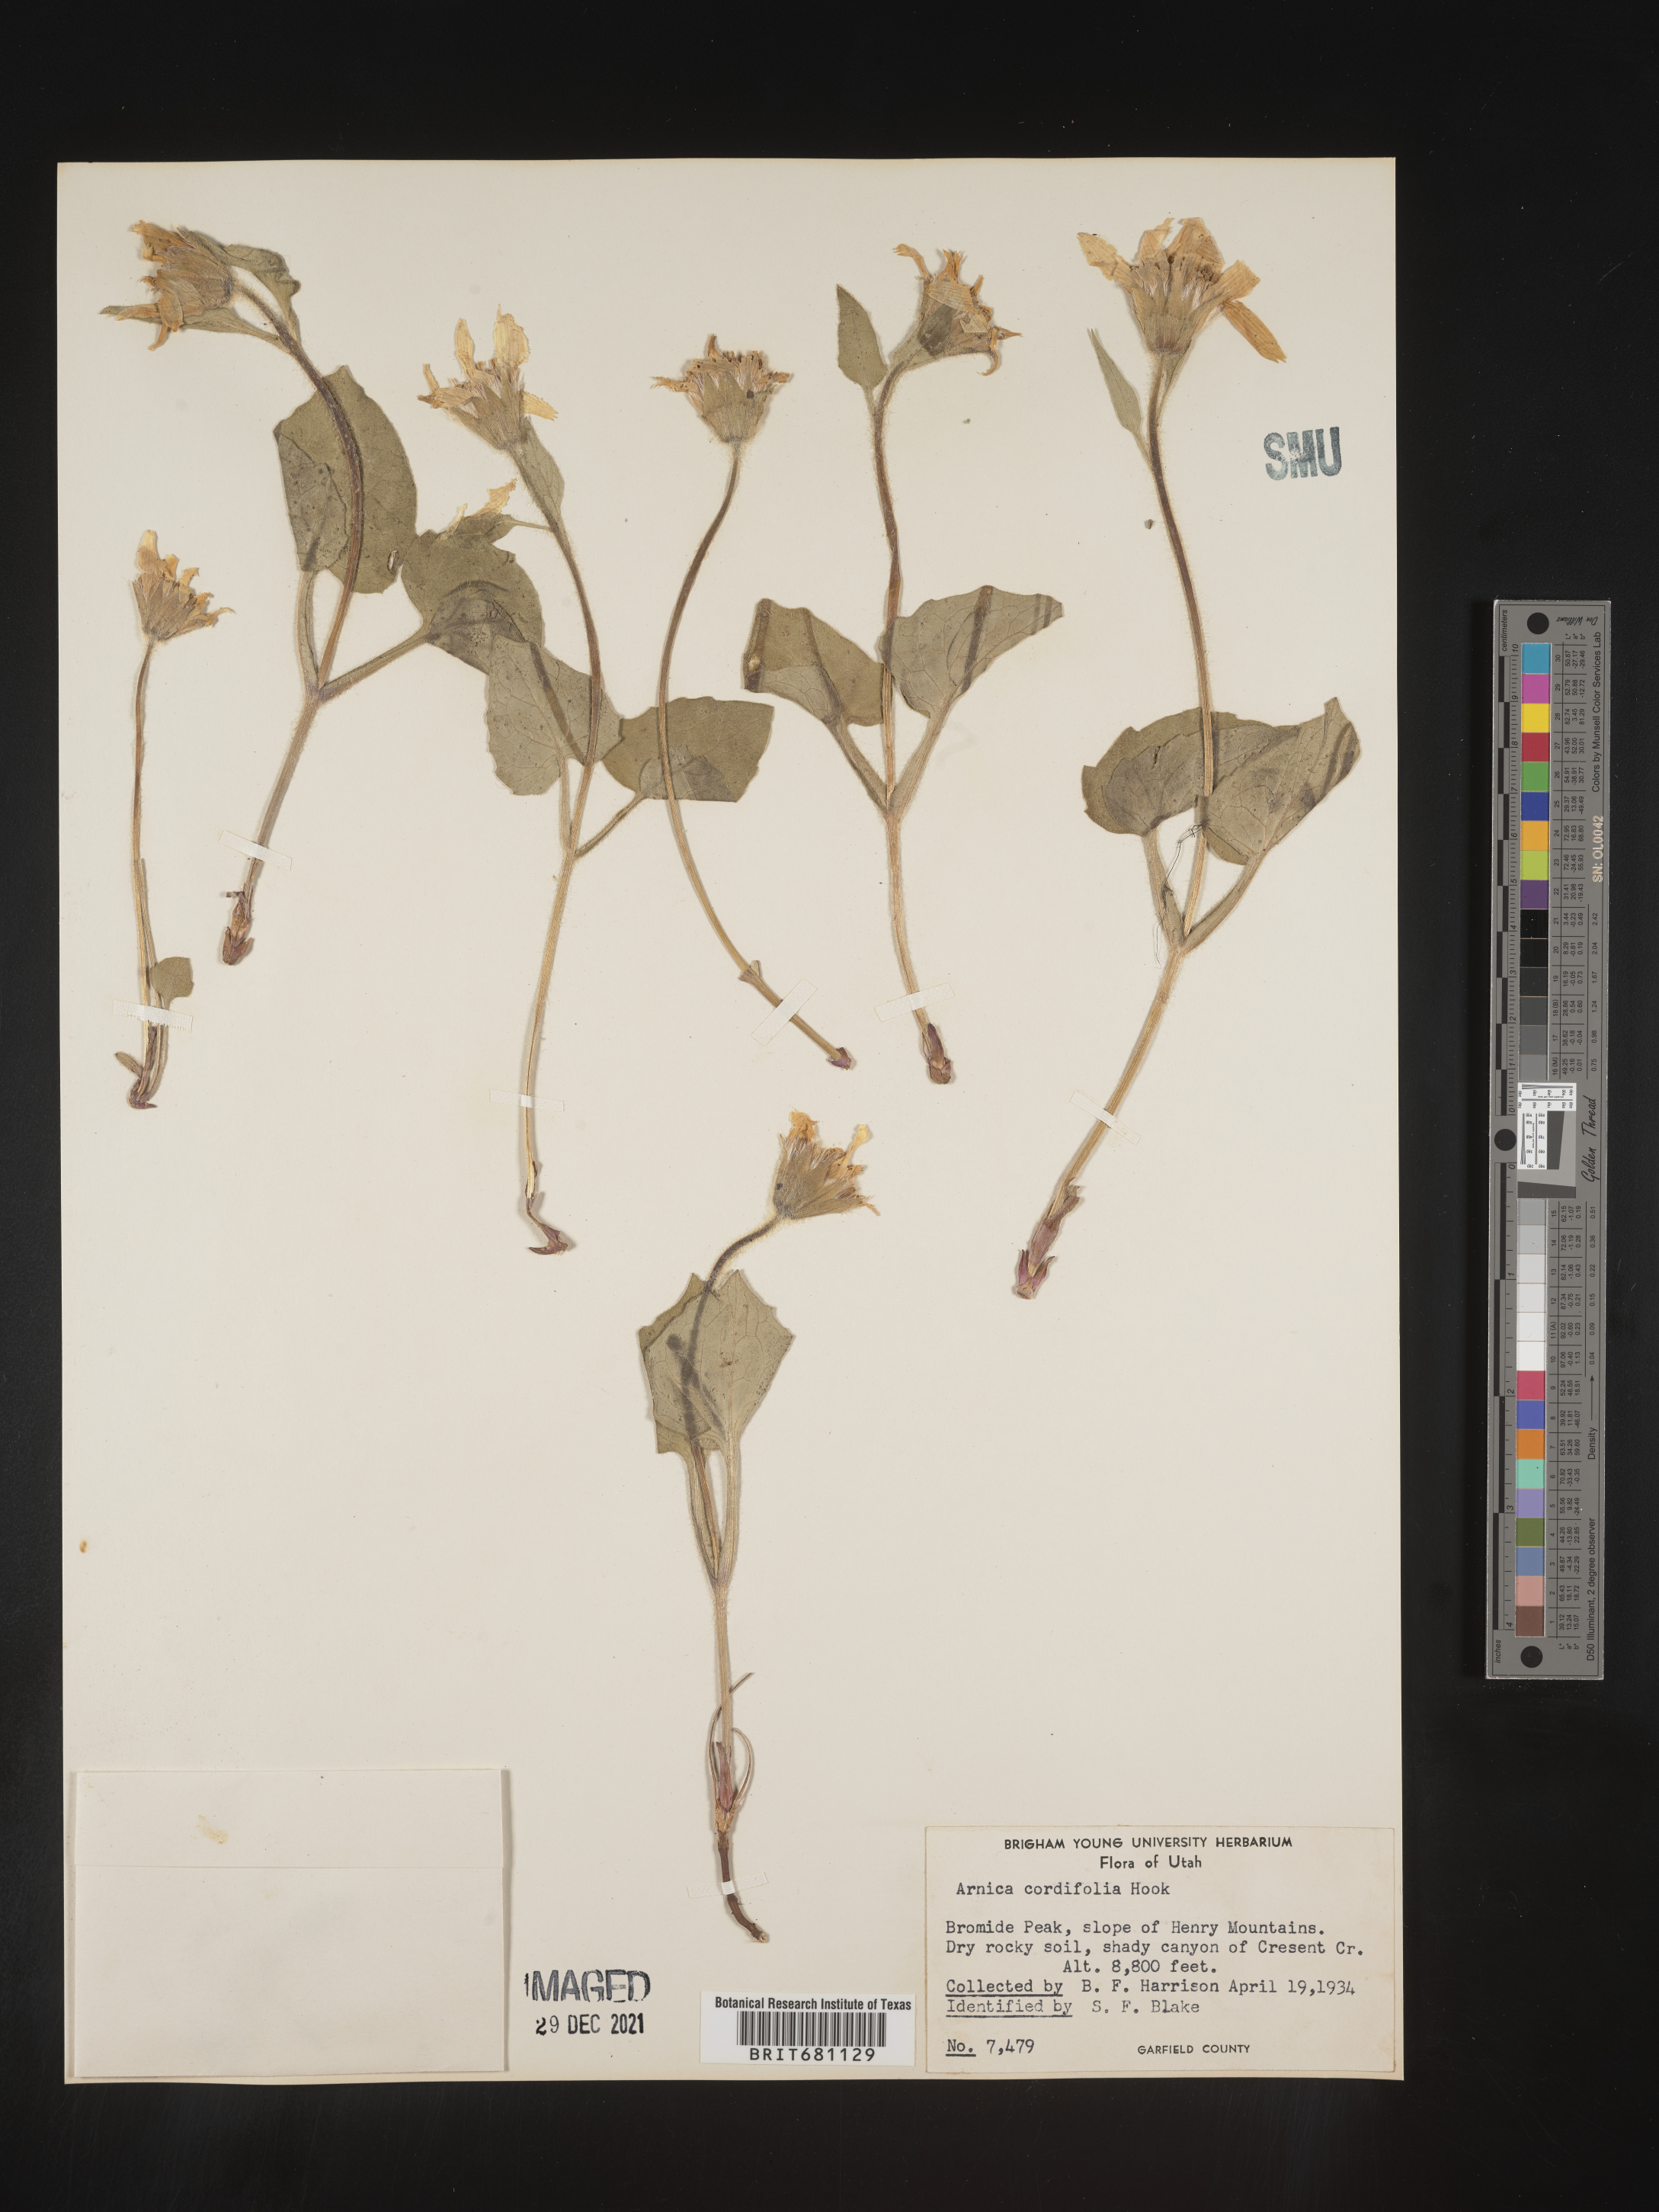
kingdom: Plantae
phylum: Tracheophyta
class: Magnoliopsida
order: Asterales
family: Asteraceae
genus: Arnica
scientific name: Arnica cordifolia
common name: Heart-leaf arnica
